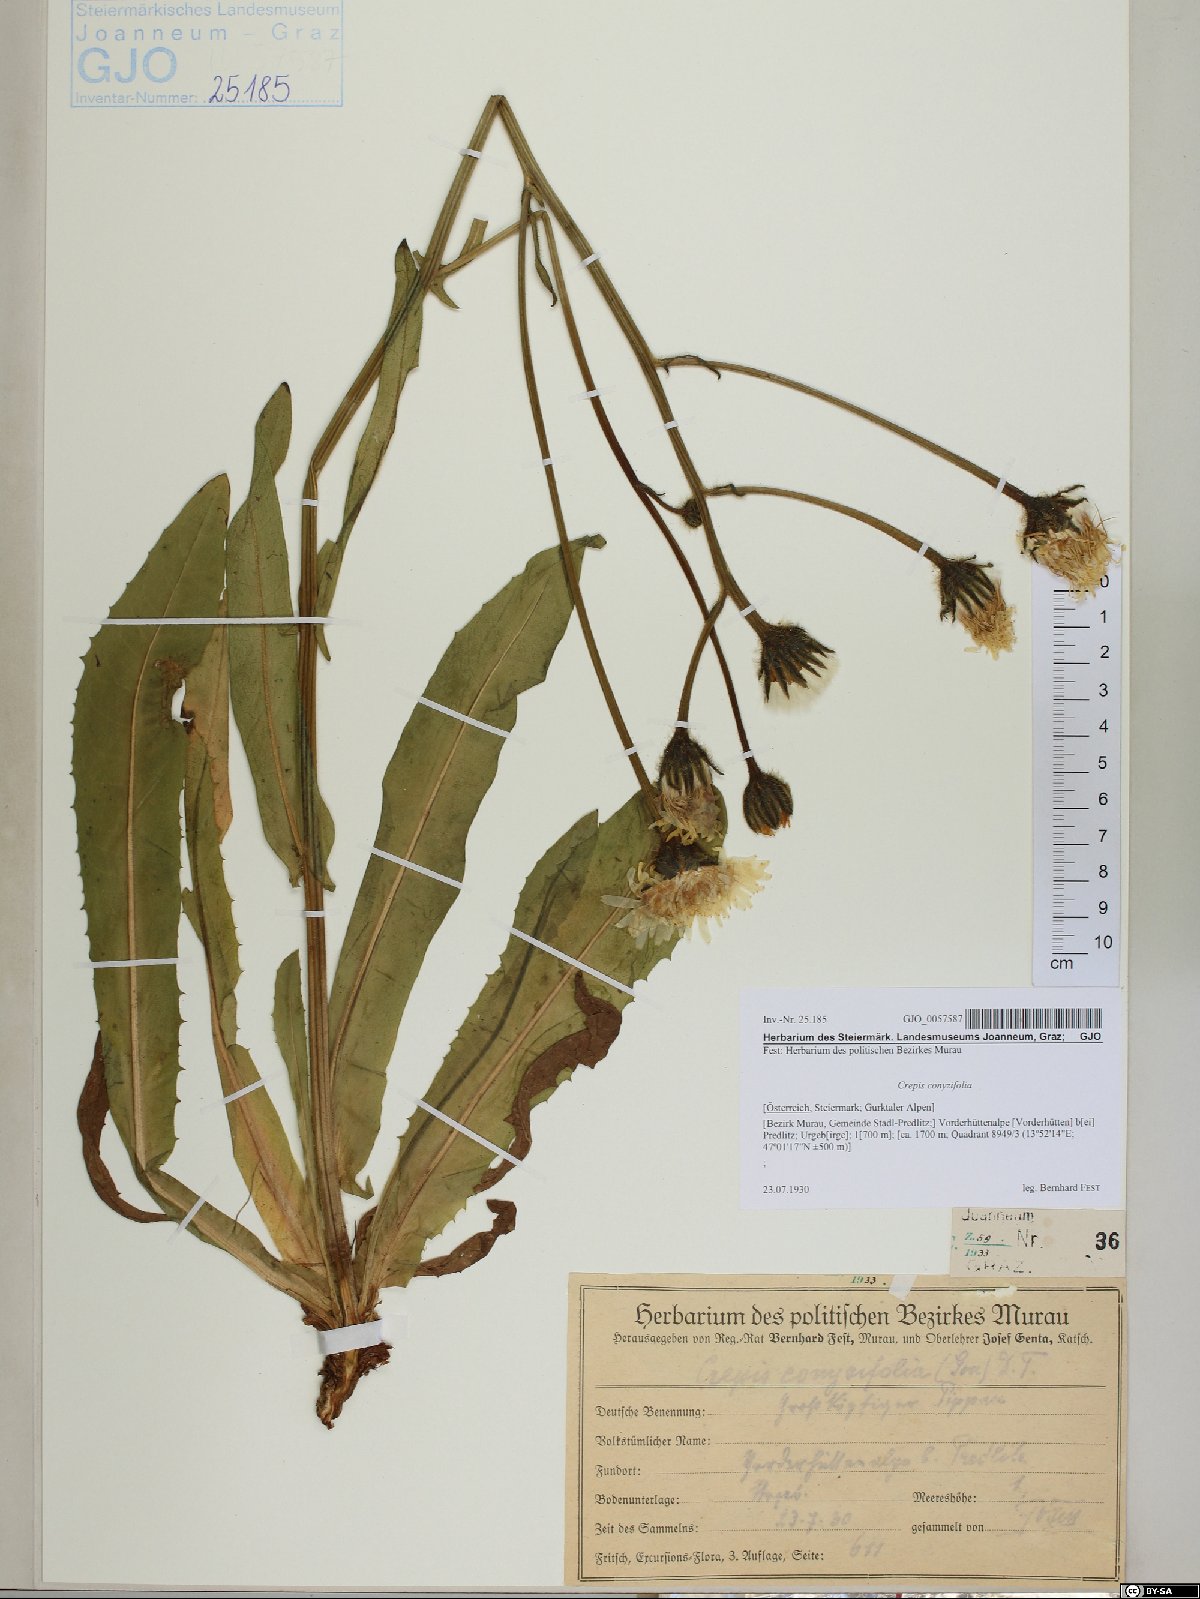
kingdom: Plantae
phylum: Tracheophyta
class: Magnoliopsida
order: Asterales
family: Asteraceae
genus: Crepis
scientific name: Crepis blattarioides
